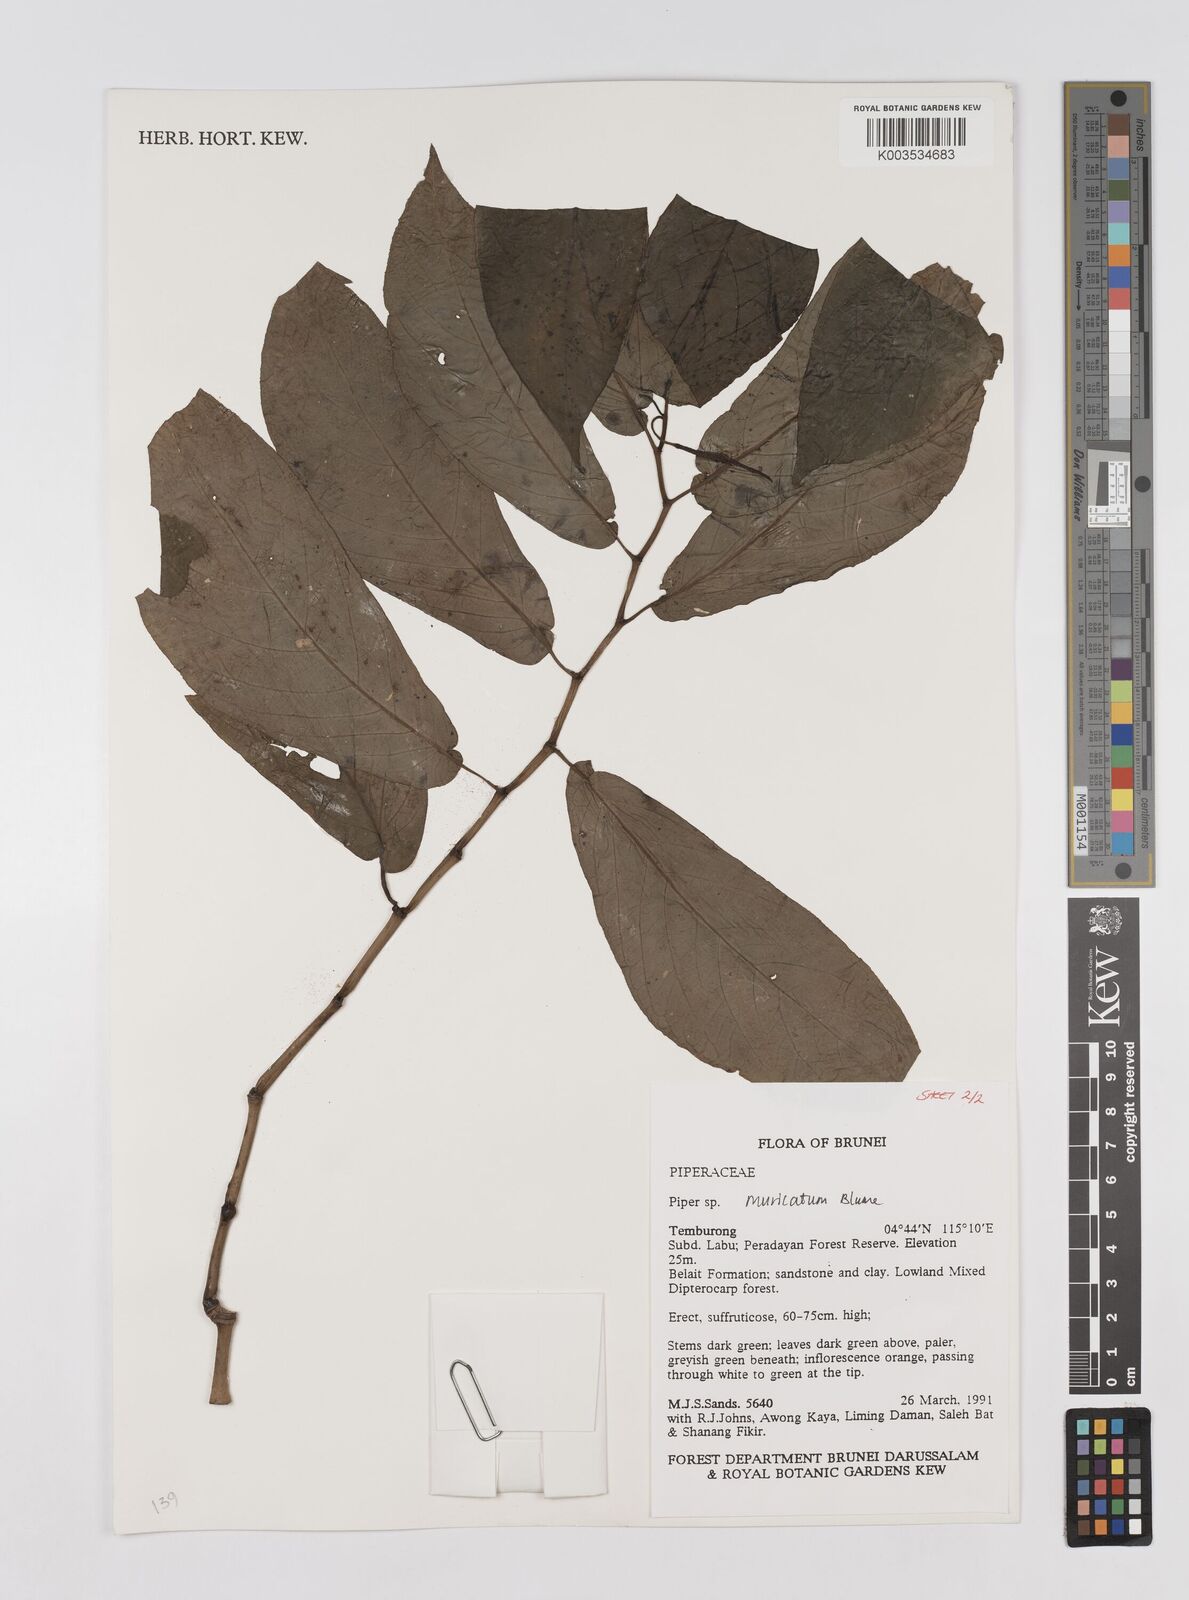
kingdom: Plantae
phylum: Tracheophyta
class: Magnoliopsida
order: Piperales
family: Piperaceae
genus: Piper
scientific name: Piper muricatum
